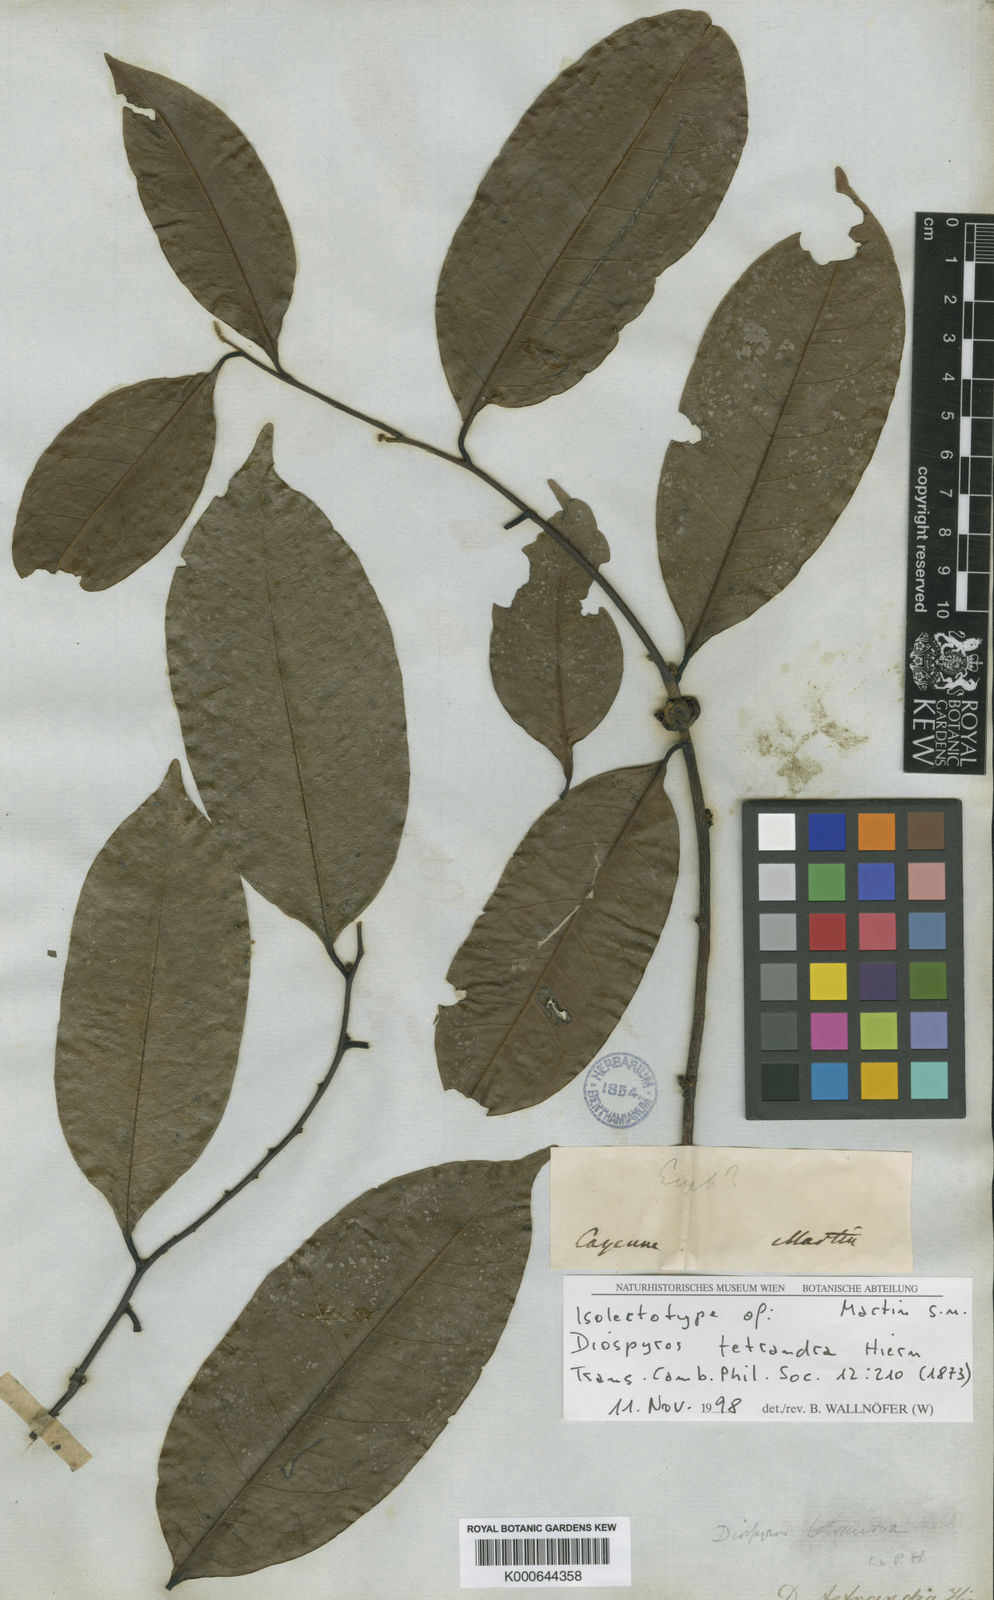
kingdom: Plantae
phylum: Tracheophyta
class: Magnoliopsida
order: Ericales
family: Ebenaceae
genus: Diospyros
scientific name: Diospyros tetrandra
